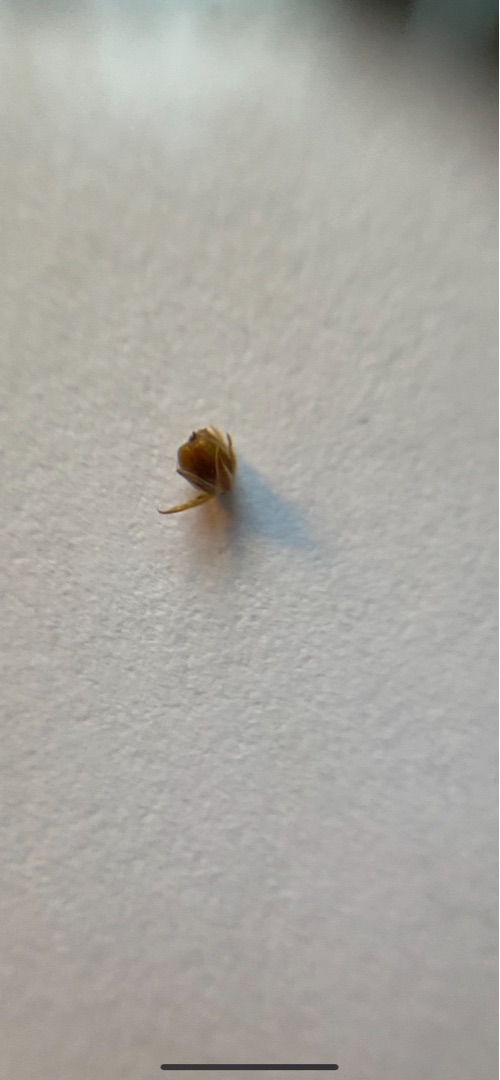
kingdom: Plantae
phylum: Tracheophyta
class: Liliopsida
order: Poales
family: Juncaceae
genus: Juncus
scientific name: Juncus effusus
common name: Lyse-siv
